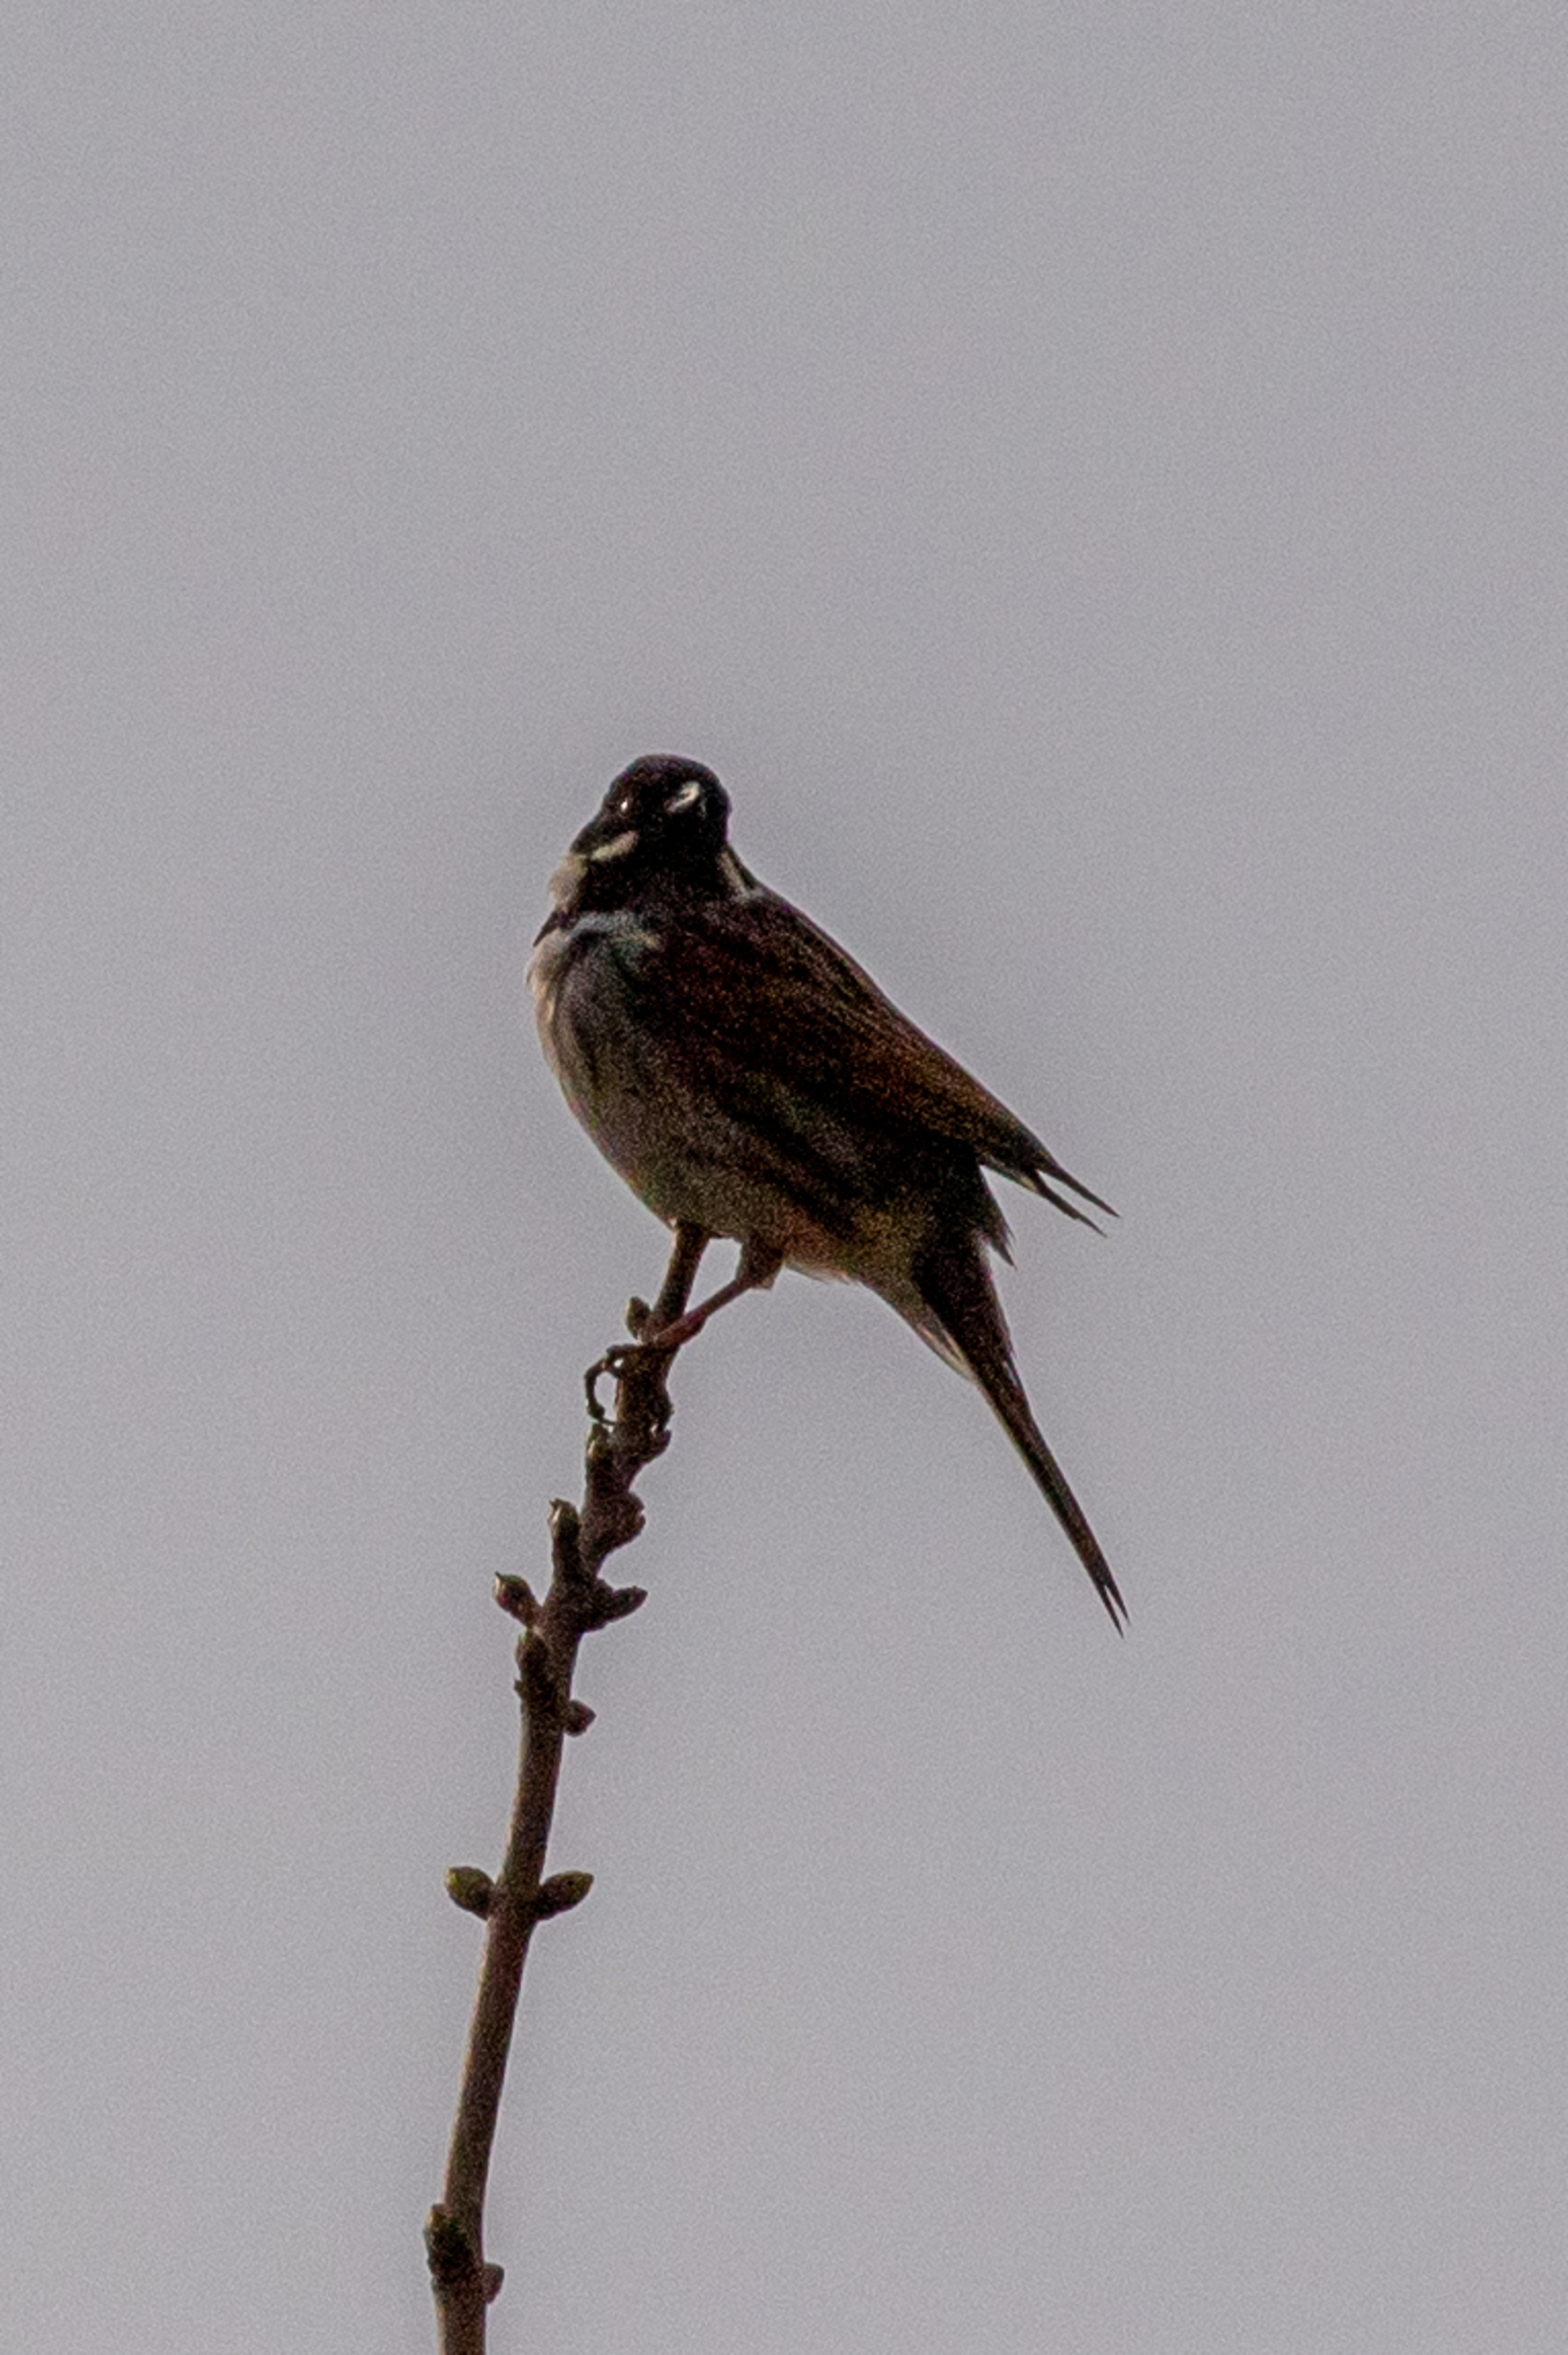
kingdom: Animalia
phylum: Chordata
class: Aves
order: Passeriformes
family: Emberizidae
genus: Emberiza
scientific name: Emberiza schoeniclus
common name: Rørspurv
